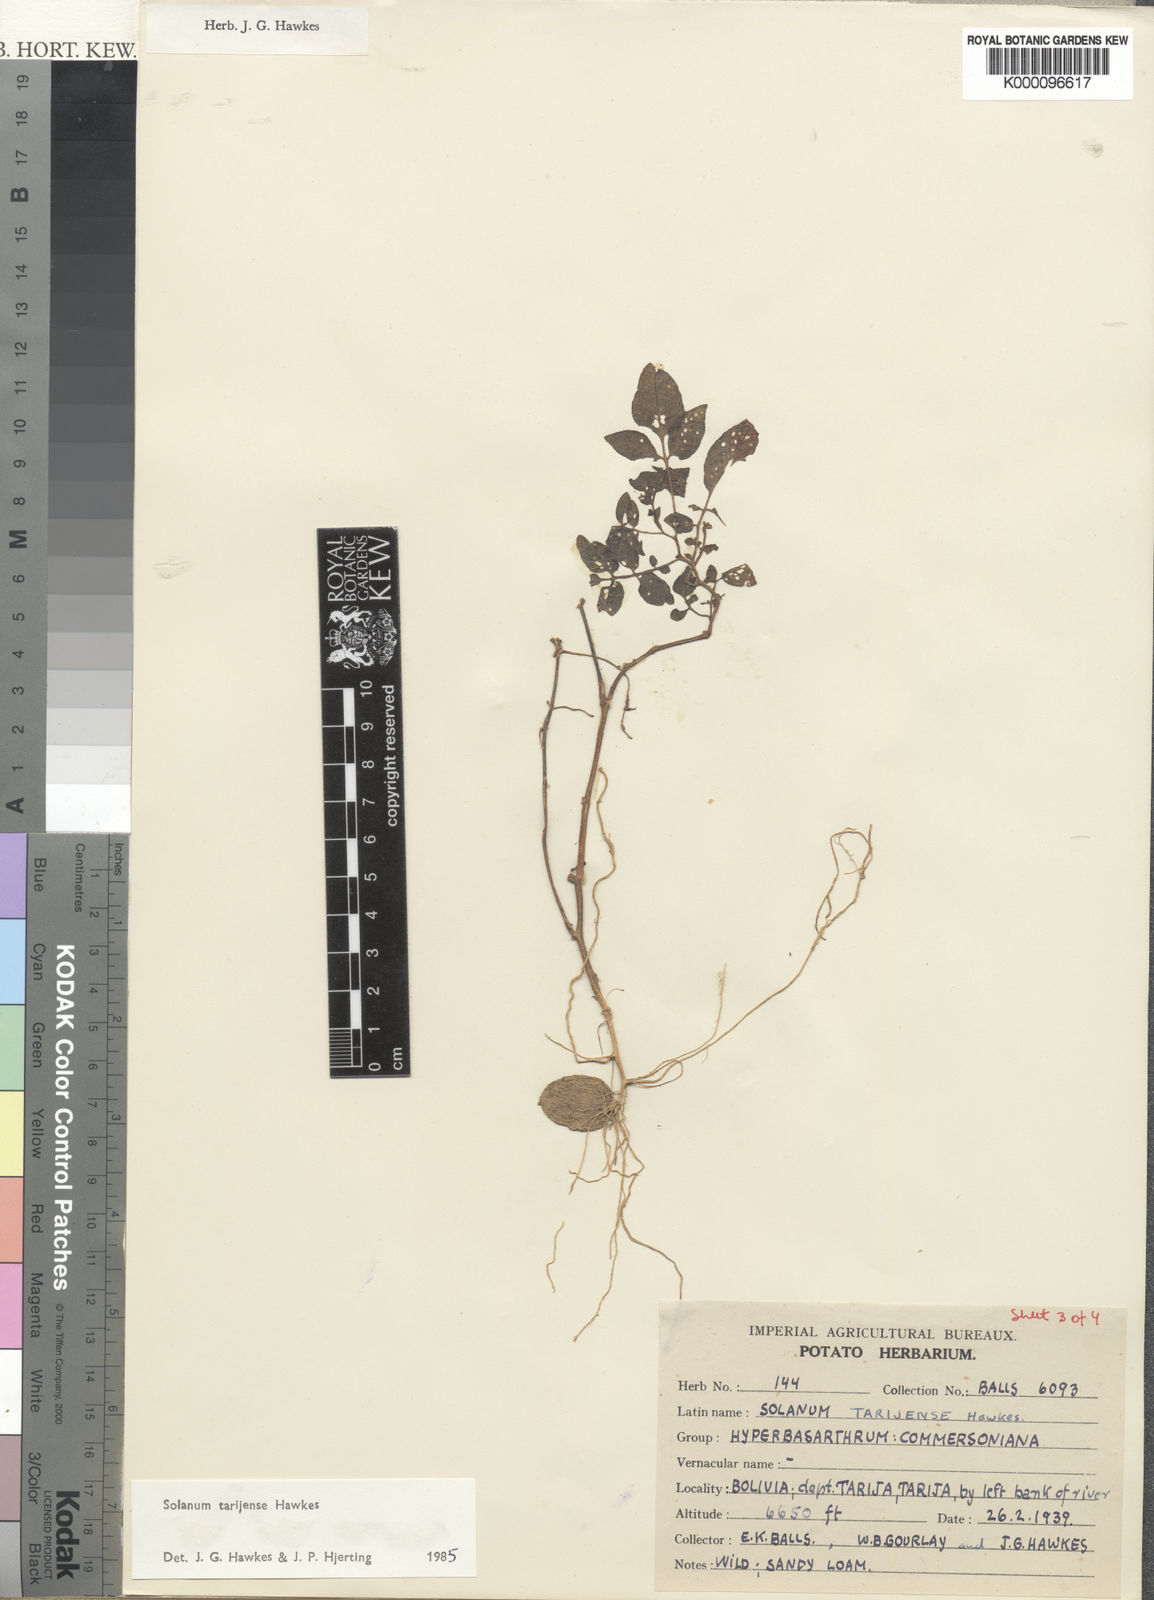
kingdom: Plantae
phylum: Tracheophyta
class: Magnoliopsida
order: Solanales
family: Solanaceae
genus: Solanum
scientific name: Solanum tarijense
